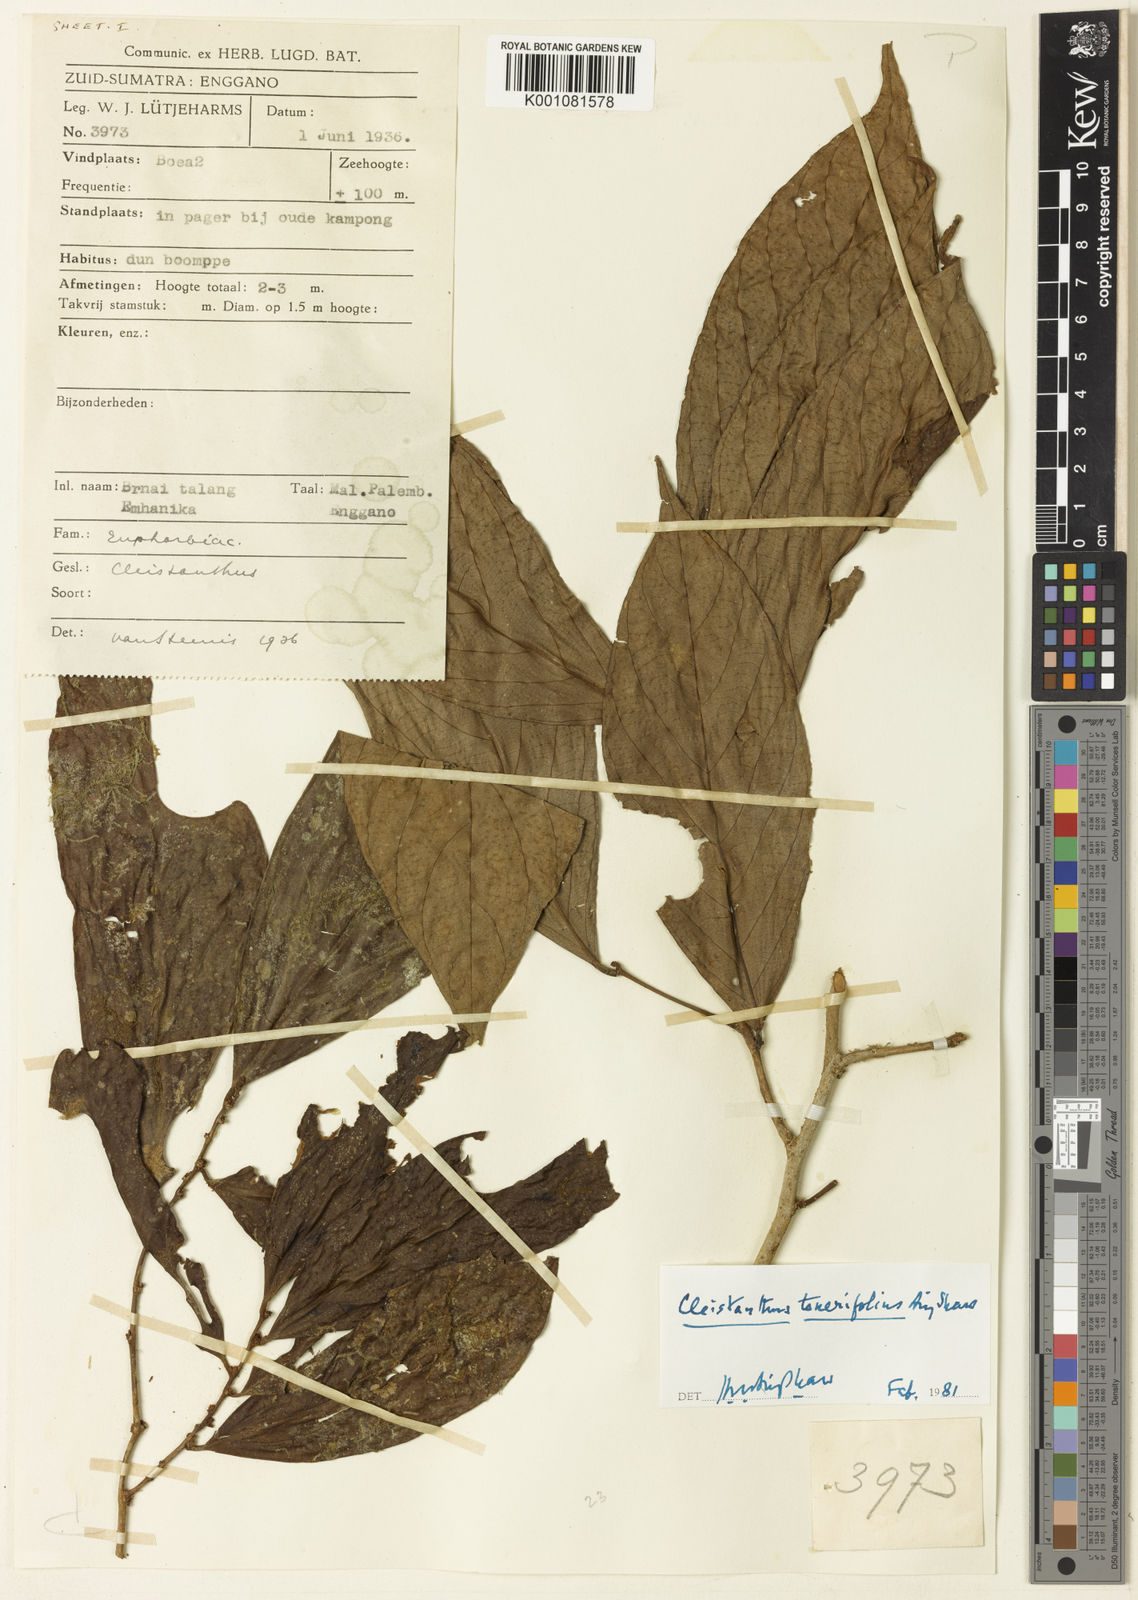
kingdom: Plantae
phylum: Tracheophyta
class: Magnoliopsida
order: Malpighiales
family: Phyllanthaceae
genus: Cleistanthus
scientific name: Cleistanthus tenerifolius
